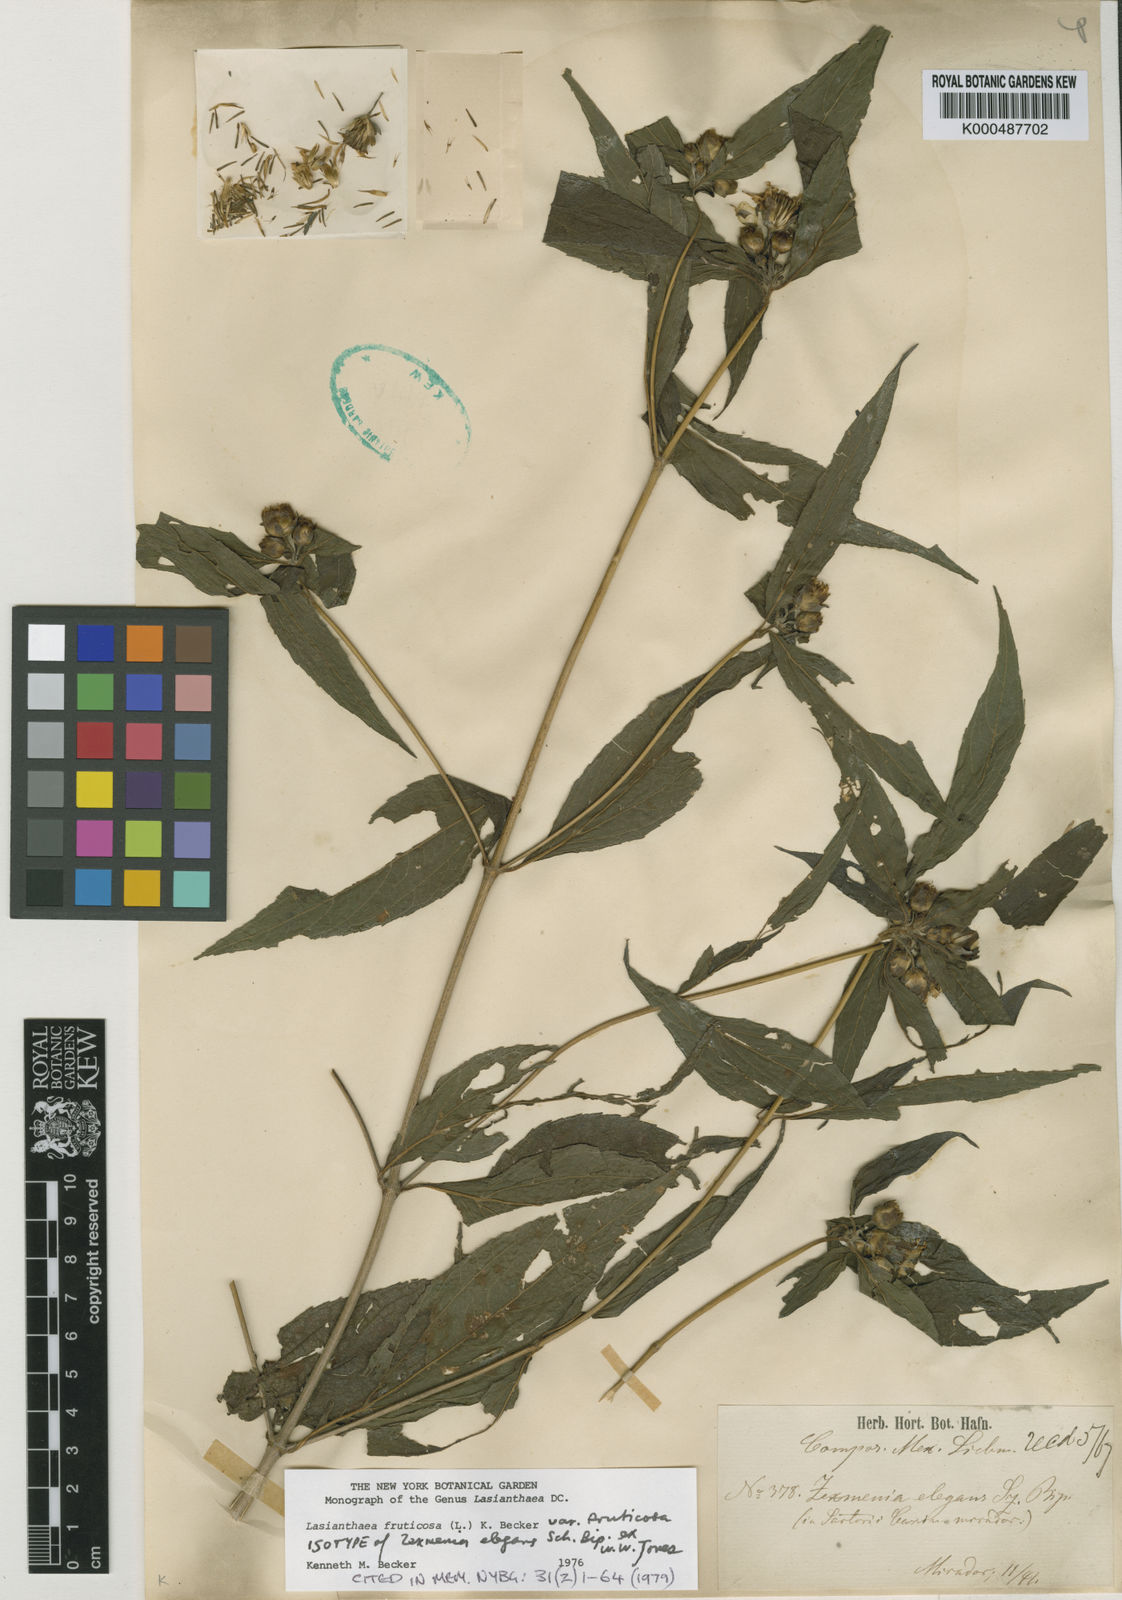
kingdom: Plantae
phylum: Tracheophyta
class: Magnoliopsida
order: Asterales
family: Asteraceae
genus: Lasianthaea
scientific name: Lasianthaea fruticosa
